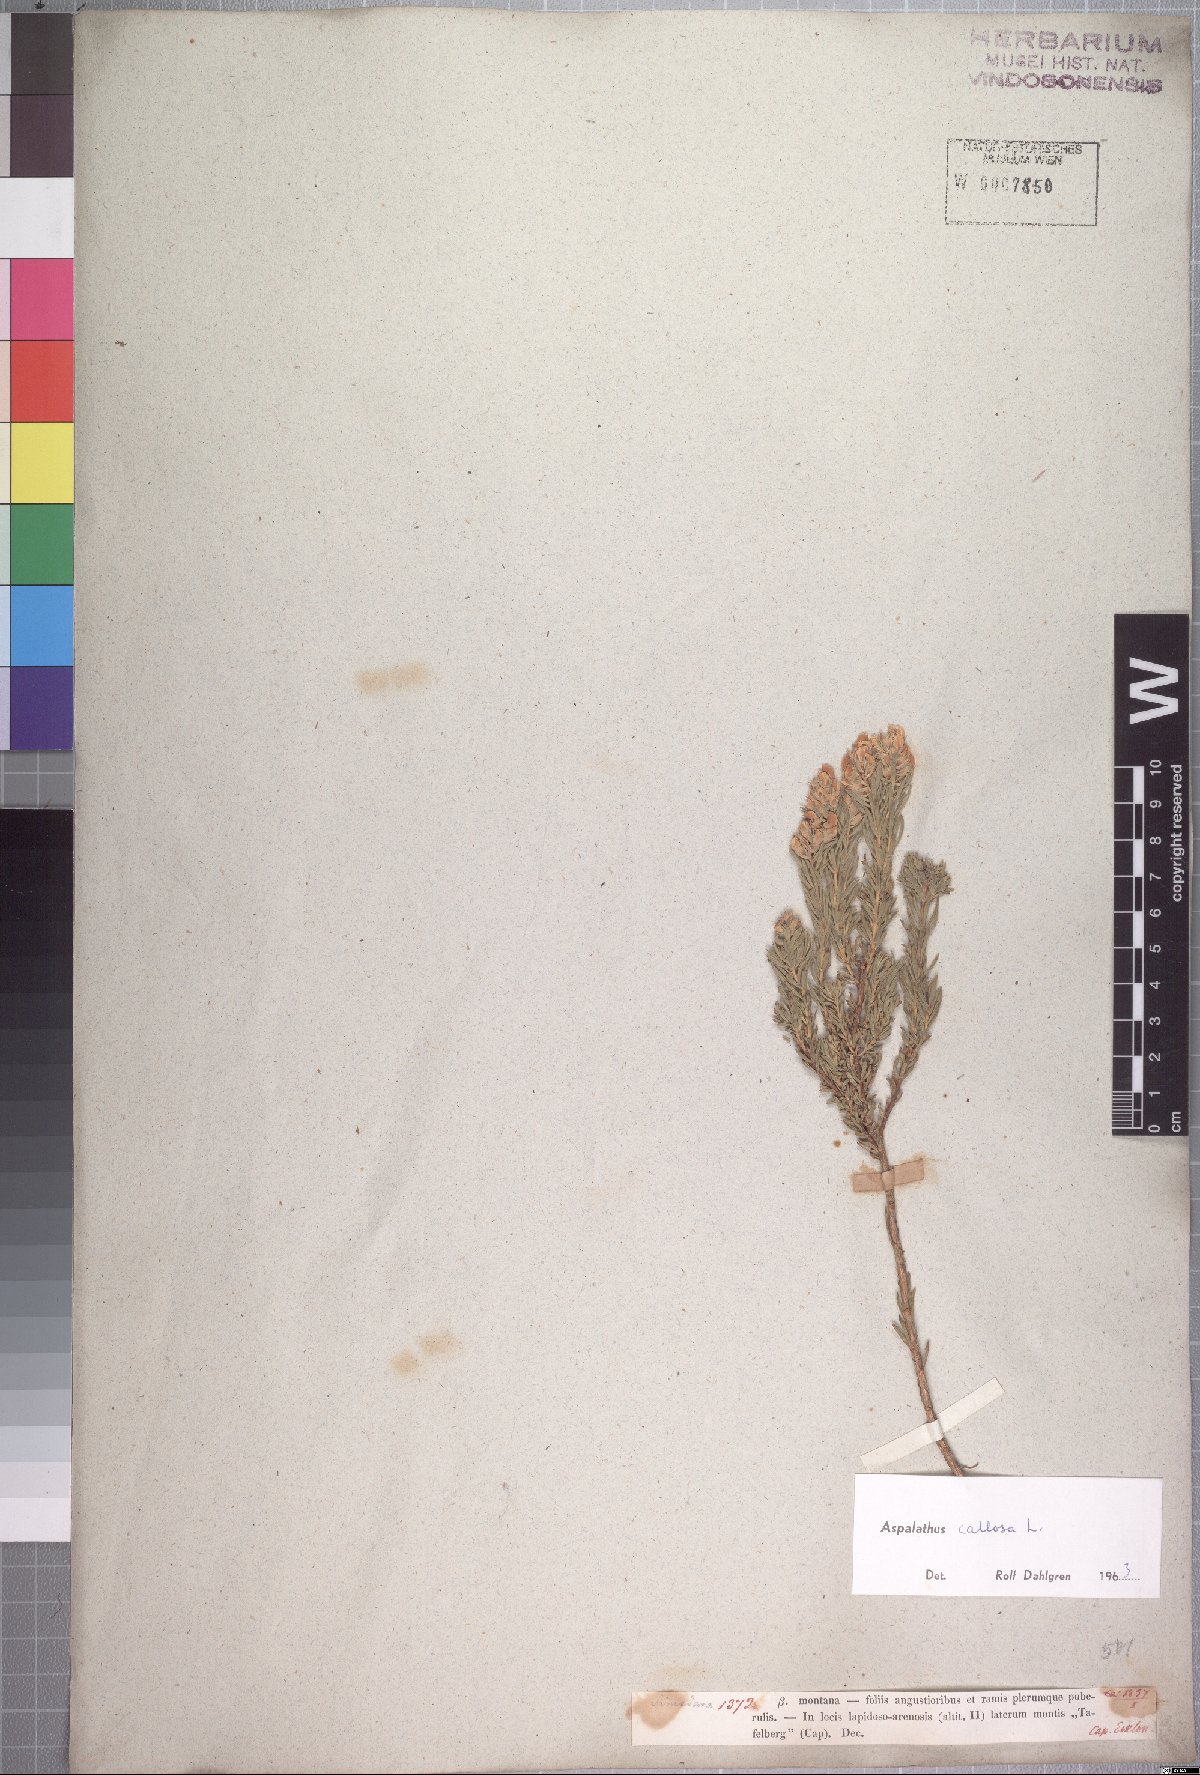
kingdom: Plantae
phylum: Tracheophyta
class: Magnoliopsida
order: Fabales
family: Fabaceae
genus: Aspalathus
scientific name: Aspalathus tylodes
